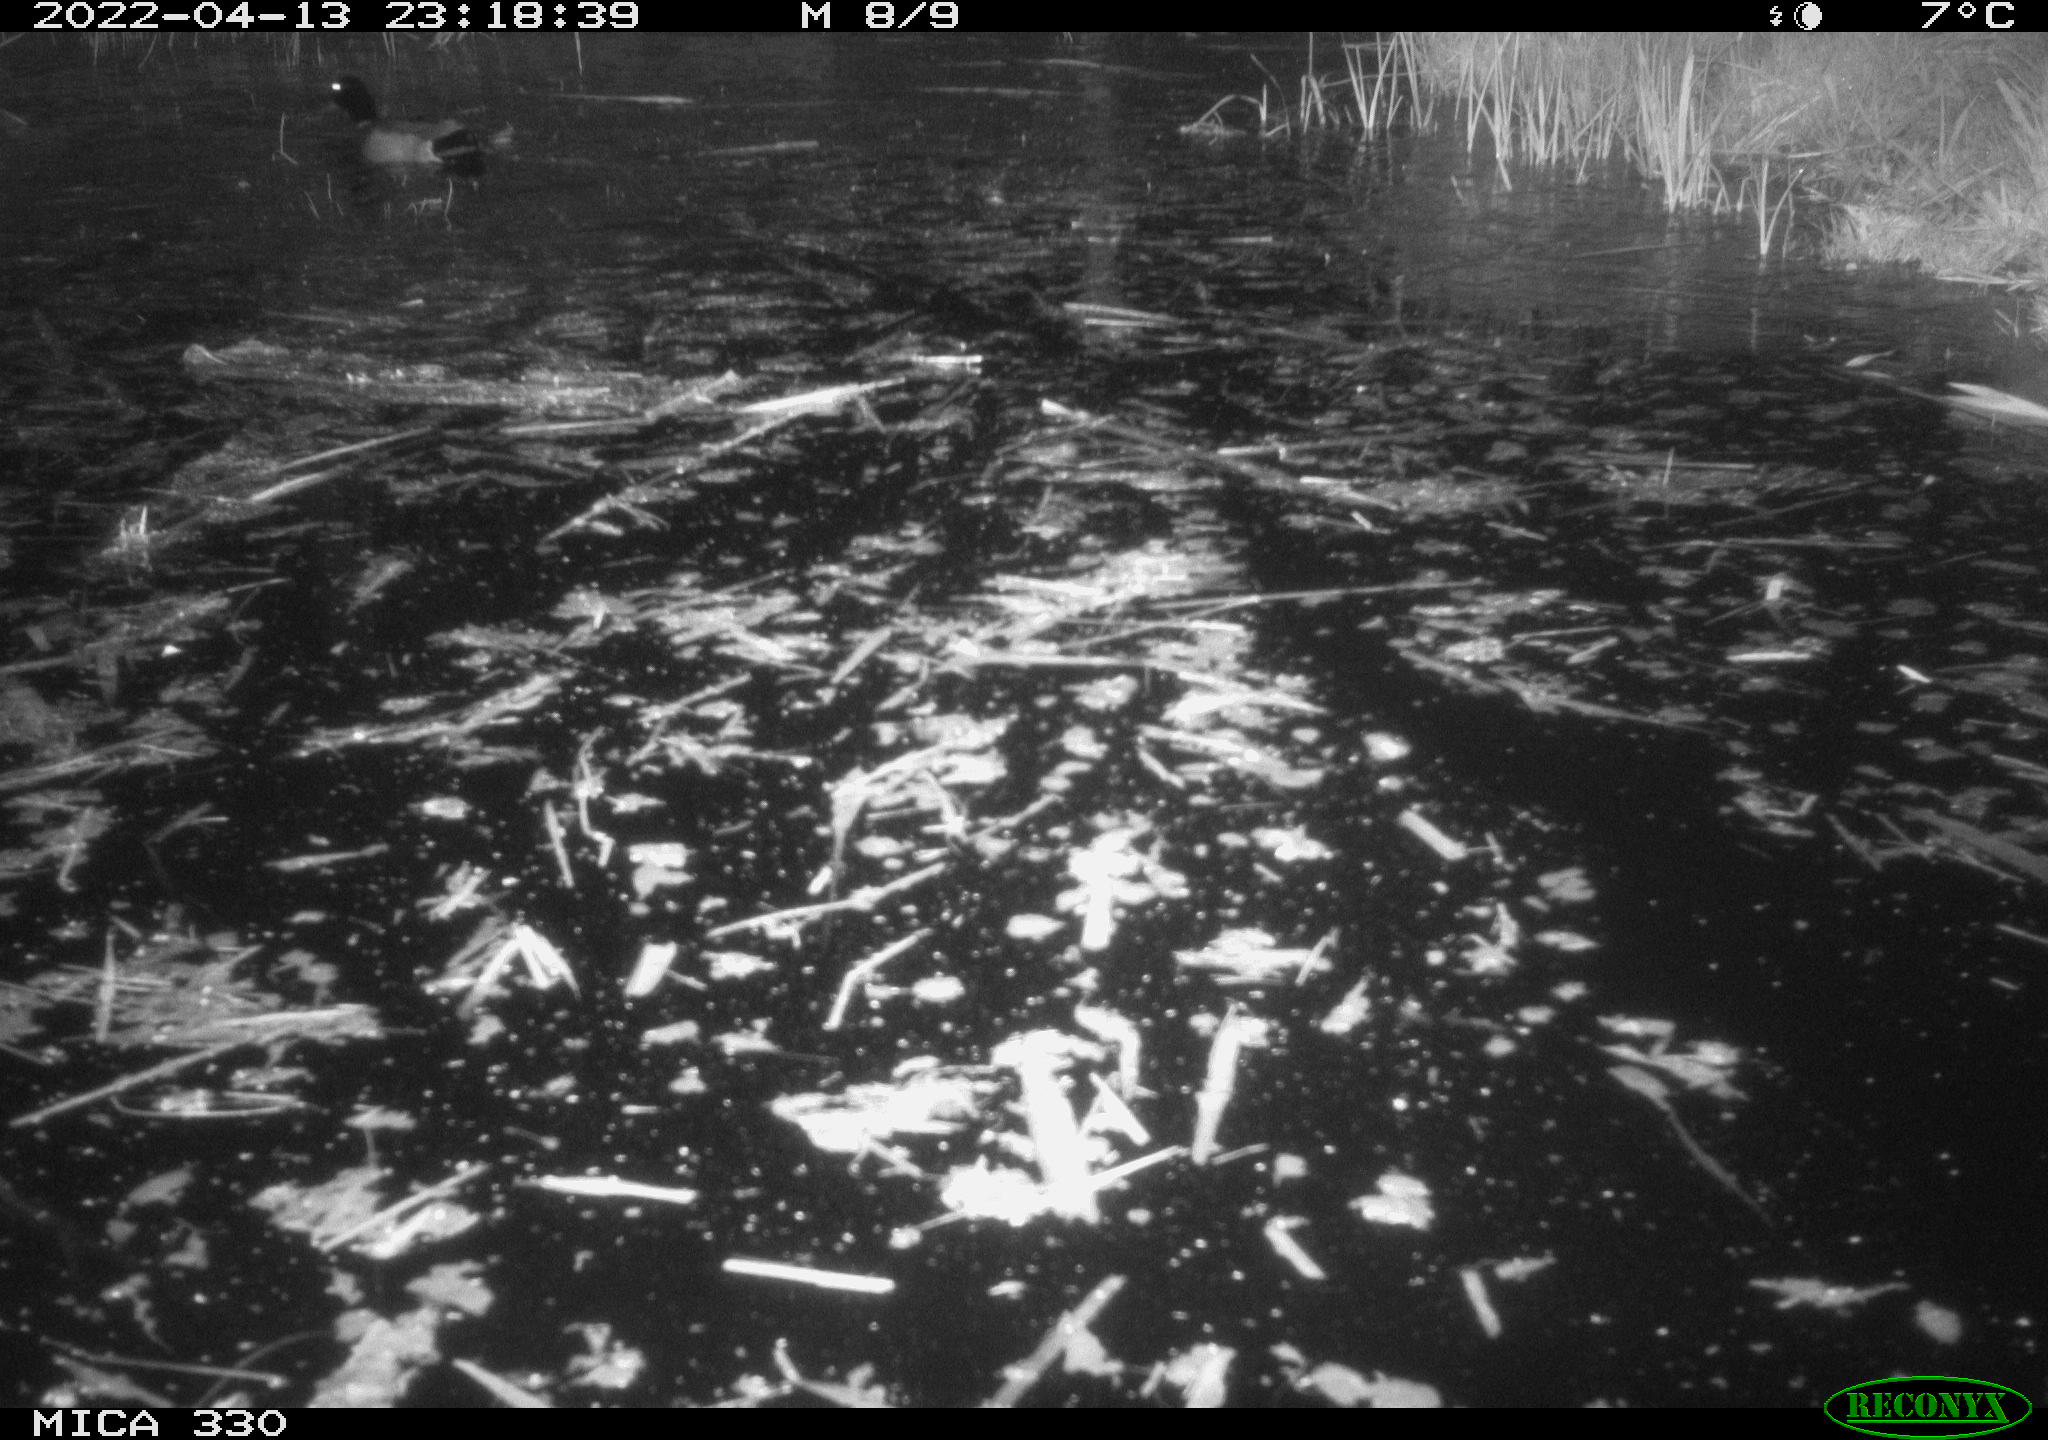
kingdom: Animalia
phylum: Chordata
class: Aves
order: Anseriformes
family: Anatidae
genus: Anas
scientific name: Anas platyrhynchos
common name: Mallard
